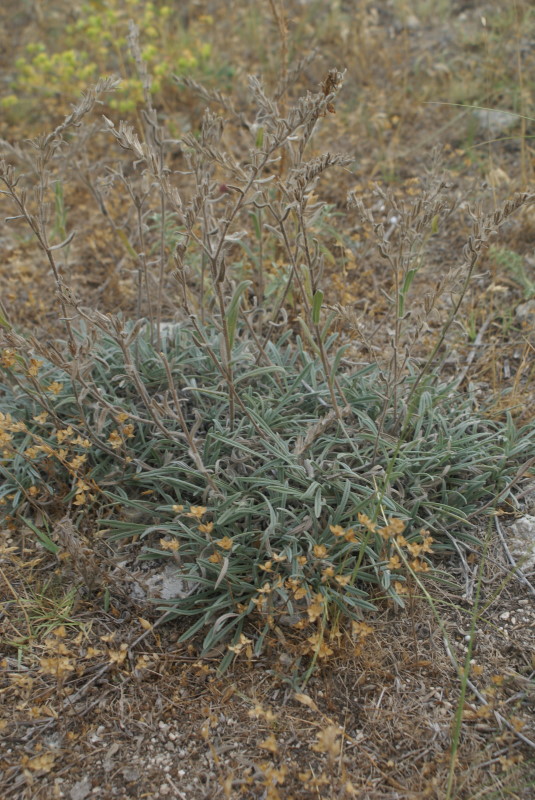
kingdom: Plantae
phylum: Tracheophyta
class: Magnoliopsida
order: Boraginales
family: Boraginaceae
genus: Onosma
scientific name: Onosma cinerea
